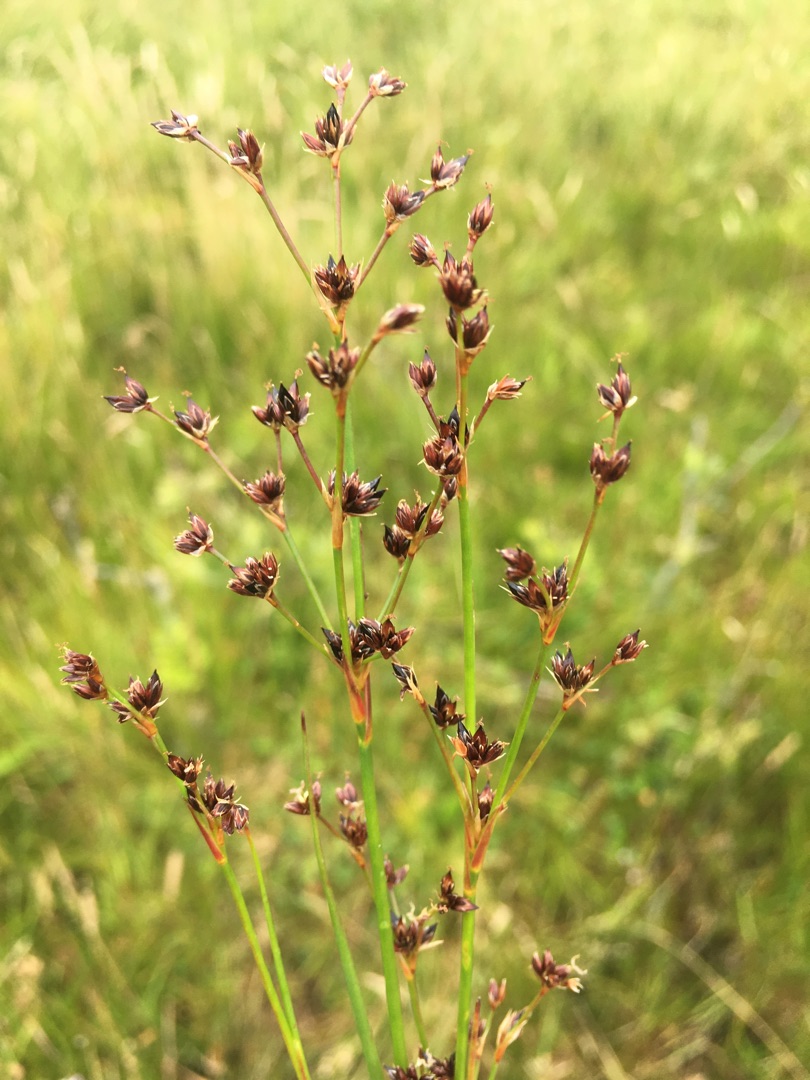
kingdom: Plantae
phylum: Tracheophyta
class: Liliopsida
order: Poales
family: Juncaceae
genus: Juncus
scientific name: Juncus articulatus
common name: Glanskapslet siv
